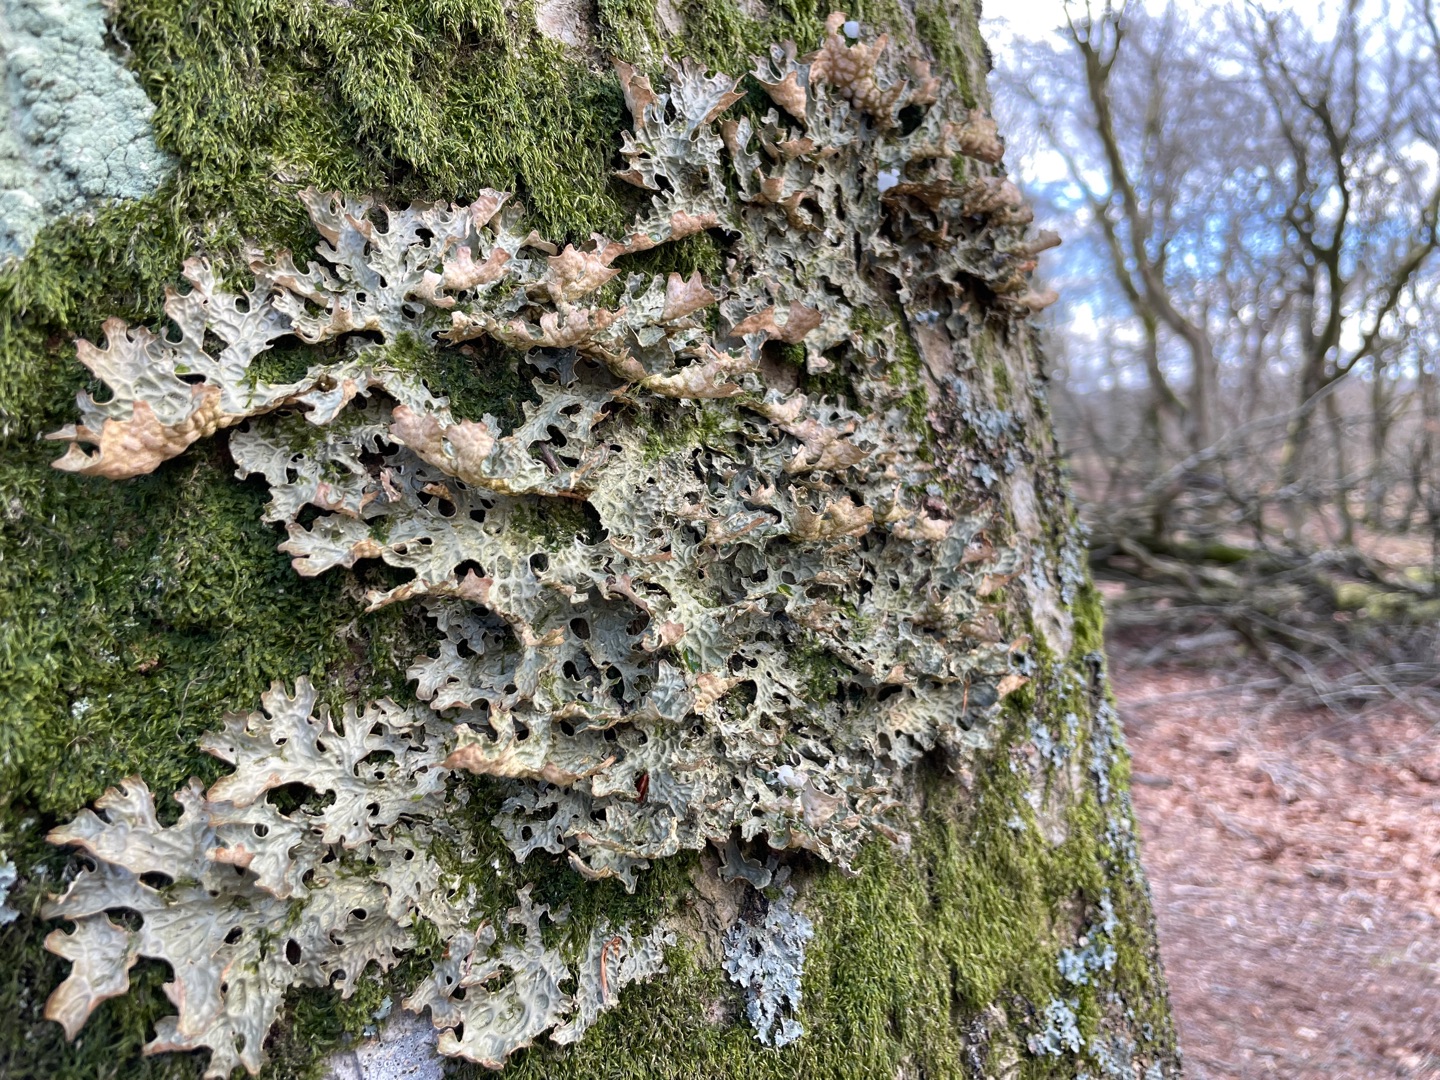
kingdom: Fungi
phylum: Ascomycota
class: Lecanoromycetes
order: Peltigerales
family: Lobariaceae
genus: Lobaria
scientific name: Lobaria pulmonaria
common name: Almindelig lungelav
